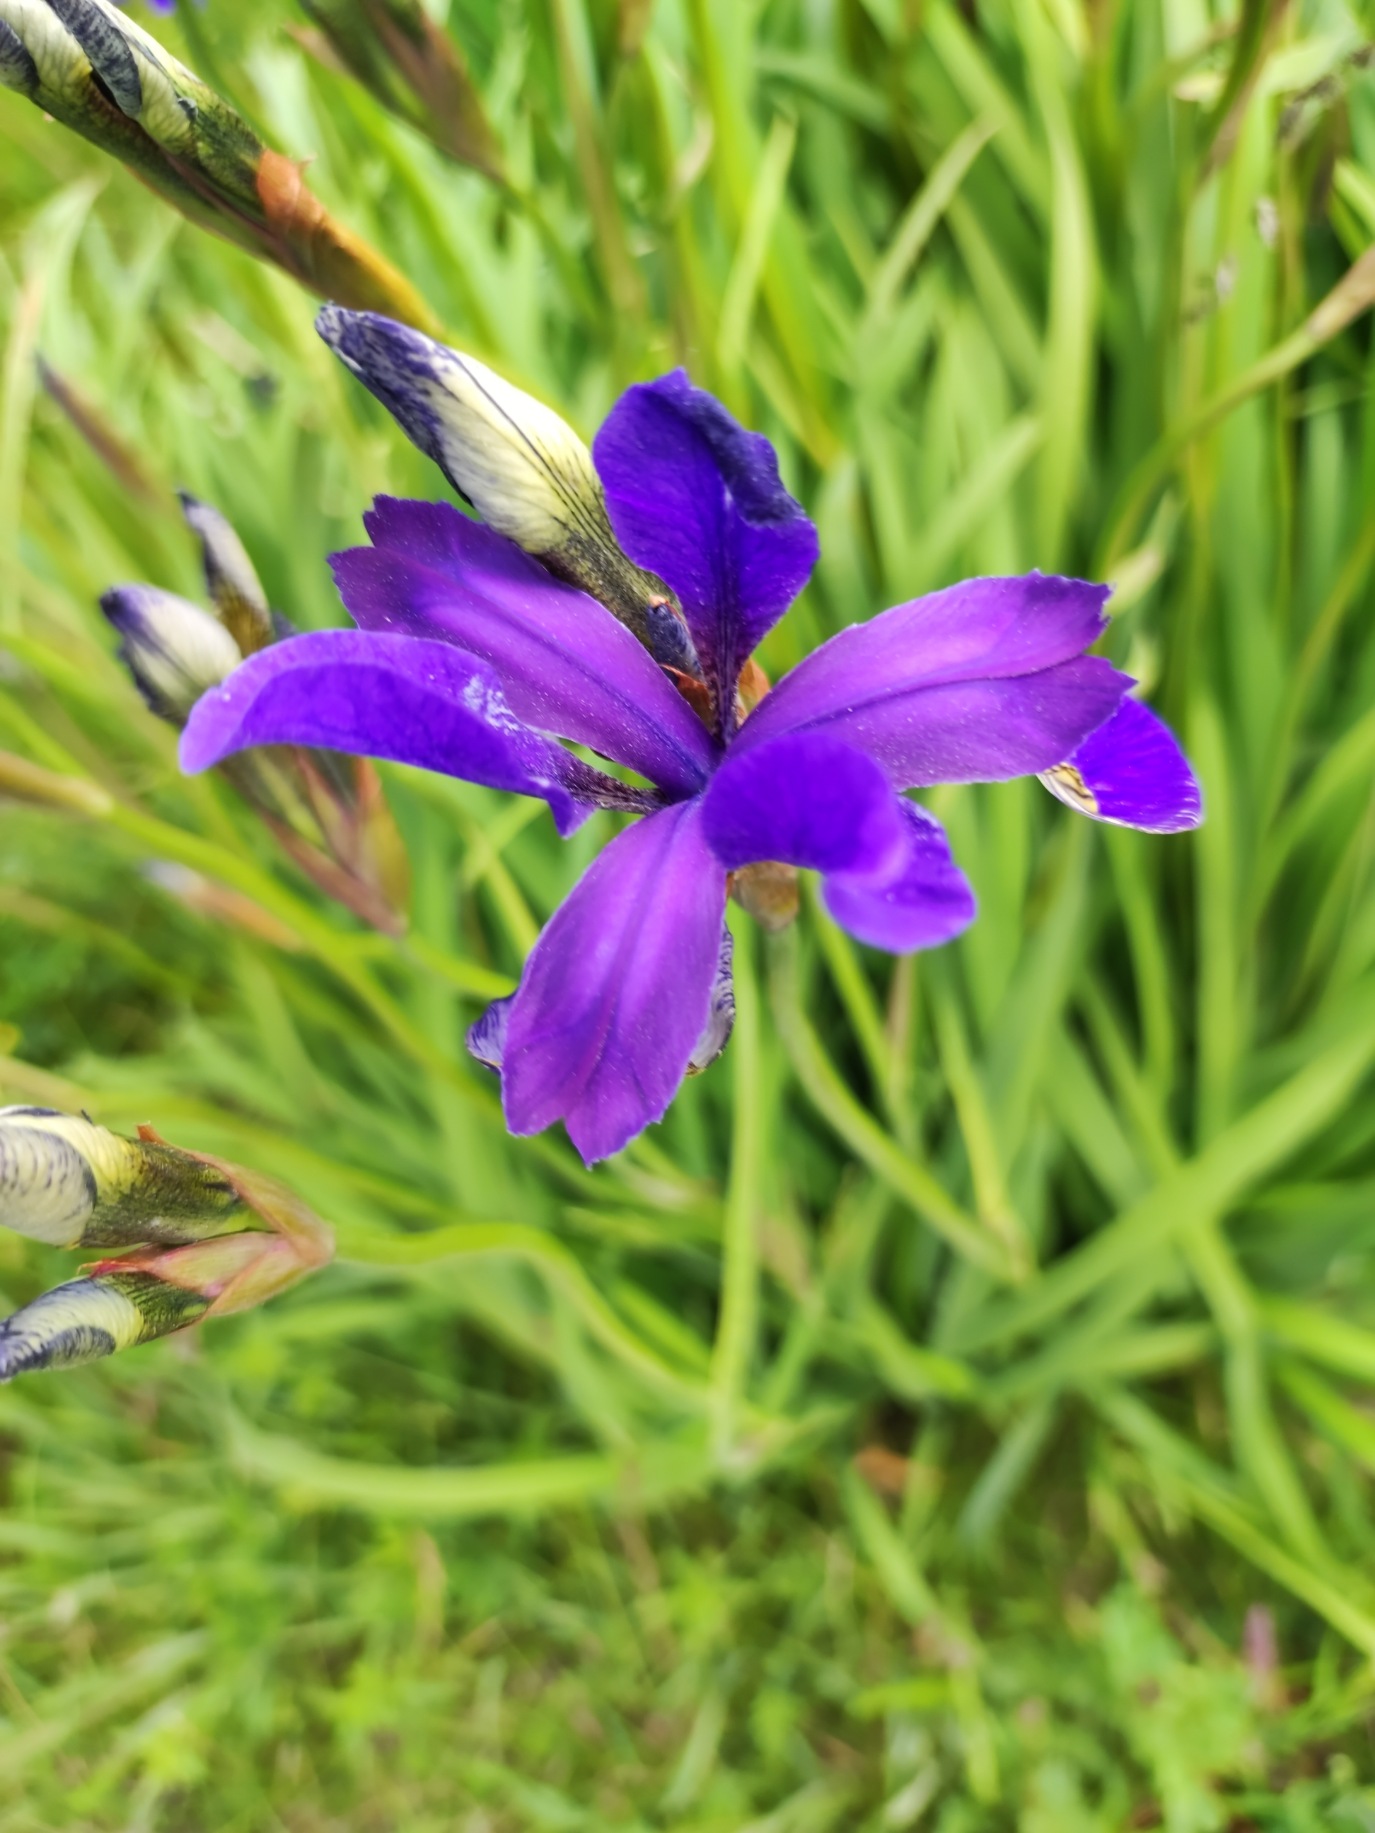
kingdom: Plantae
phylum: Tracheophyta
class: Liliopsida
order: Asparagales
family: Iridaceae
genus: Iris
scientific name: Iris sibirica
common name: Sibirisk iris
